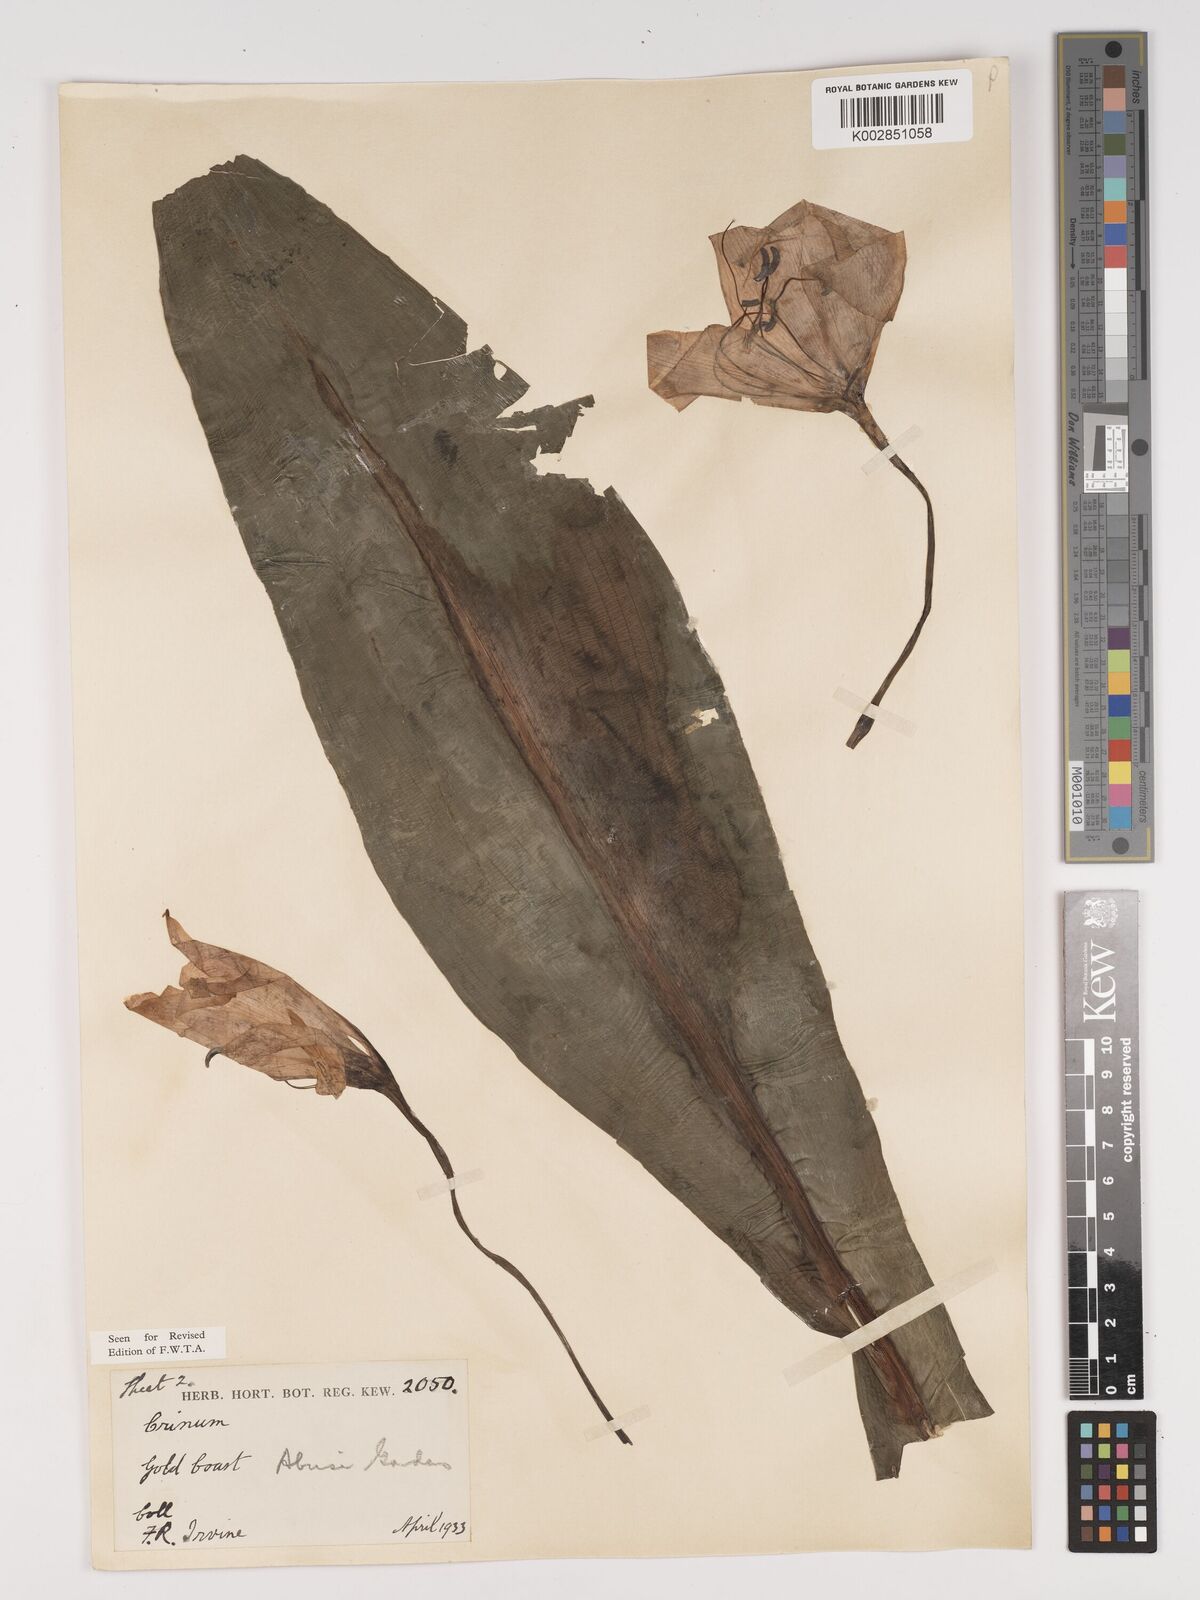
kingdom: Plantae
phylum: Tracheophyta
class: Liliopsida
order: Asparagales
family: Amaryllidaceae
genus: Crinum
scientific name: Crinum jagus
